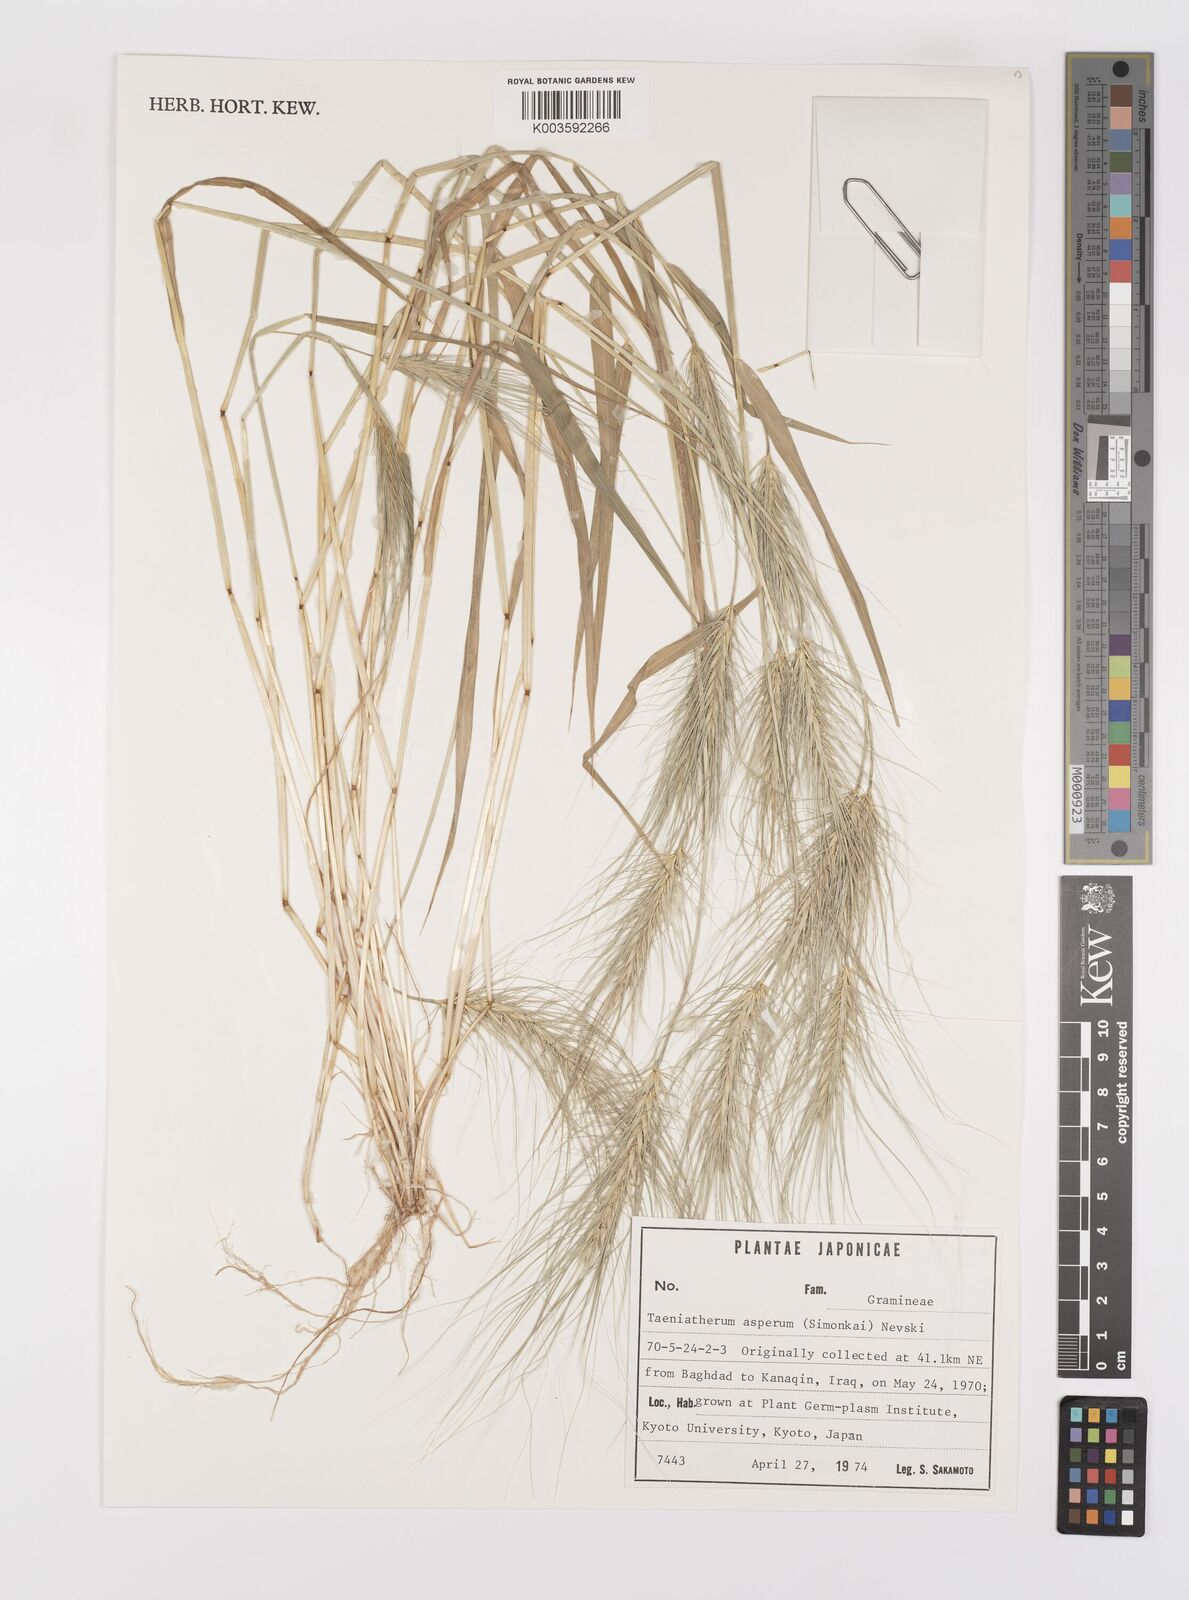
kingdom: Plantae
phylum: Tracheophyta
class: Liliopsida
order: Poales
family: Poaceae
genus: Taeniatherum
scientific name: Taeniatherum caput-medusae
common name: Medusahead
